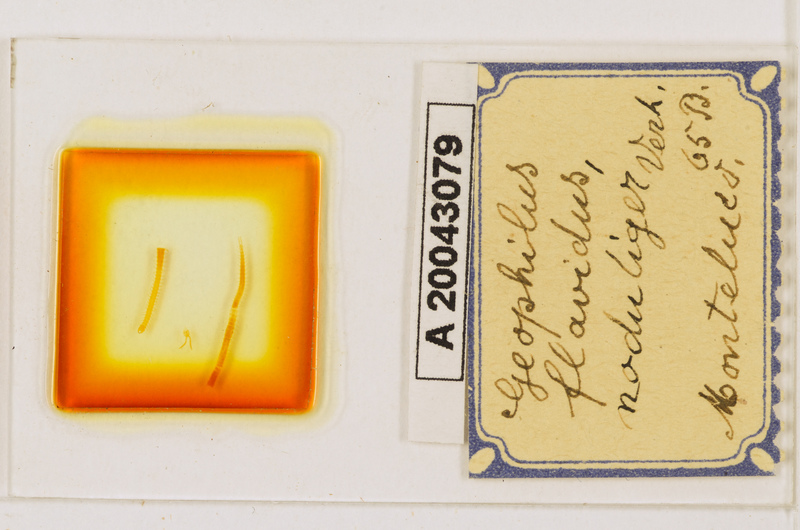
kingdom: Animalia
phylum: Arthropoda
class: Chilopoda
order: Geophilomorpha
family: Geophilidae
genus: Clinopodes
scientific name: Clinopodes flavidus
